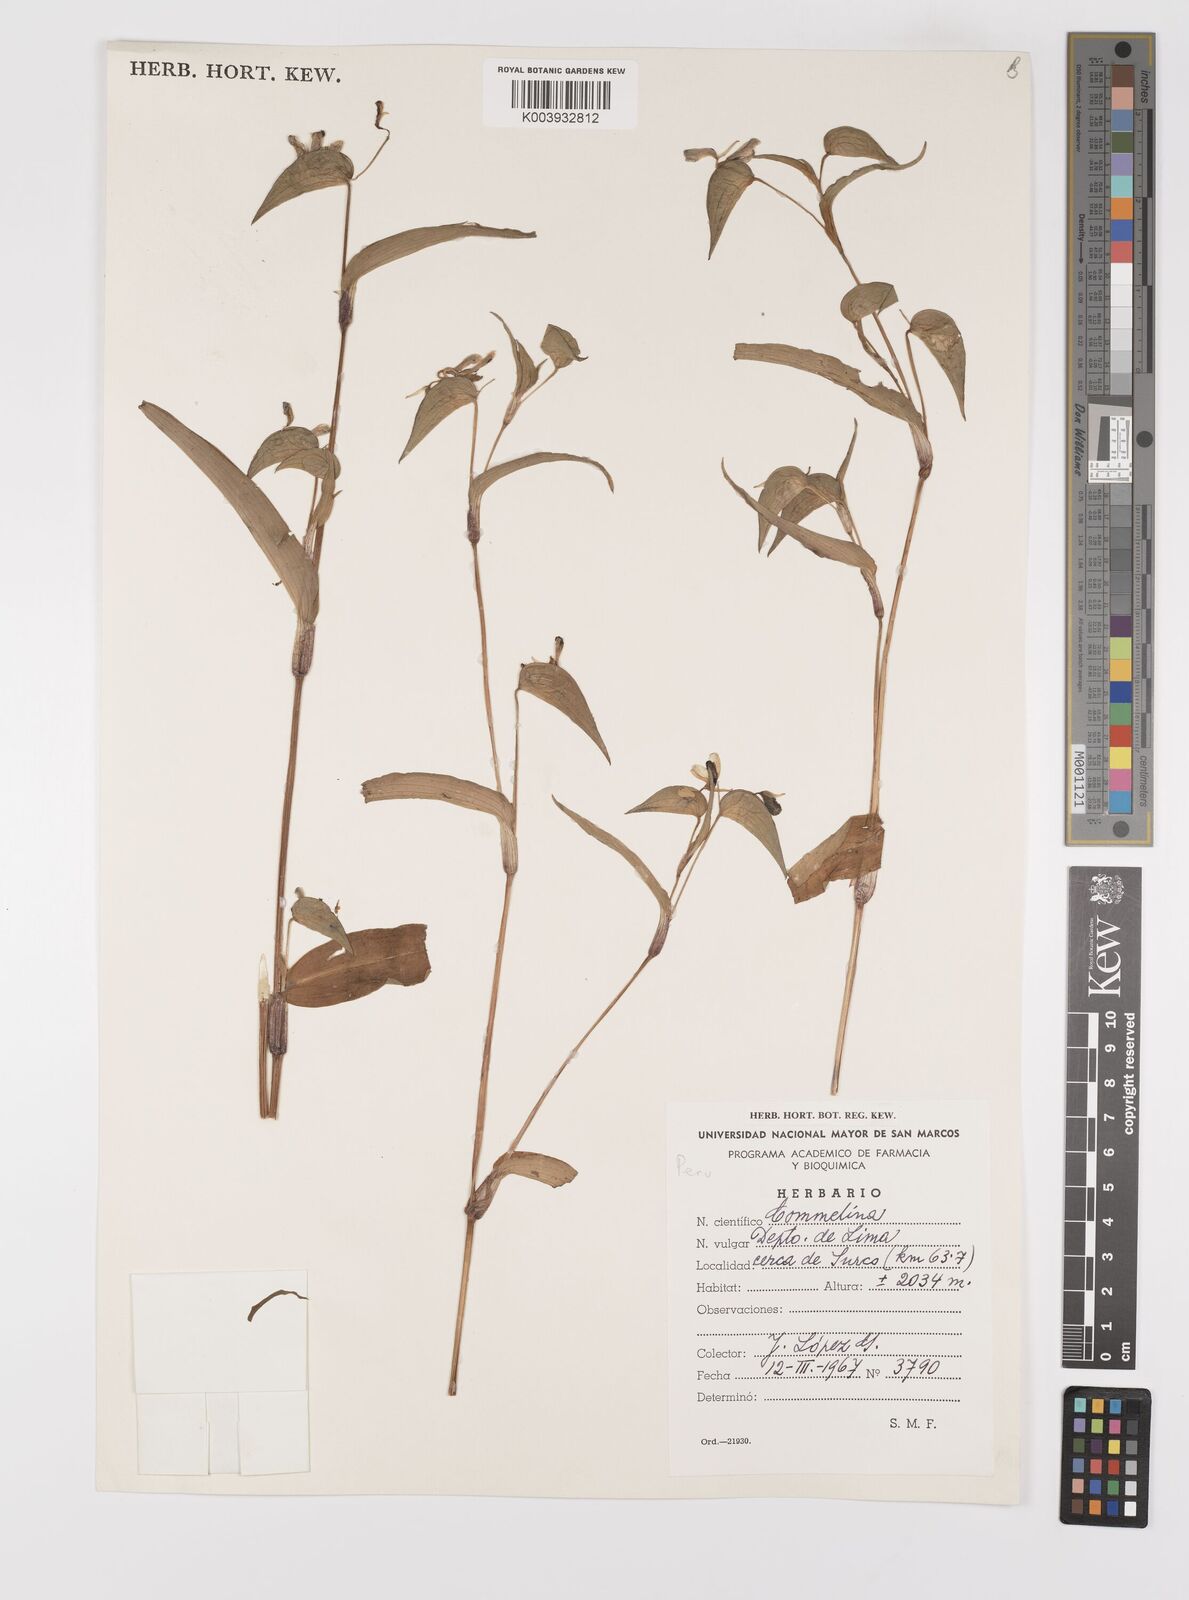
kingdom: Plantae
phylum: Tracheophyta
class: Liliopsida
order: Commelinales
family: Commelinaceae
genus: Commelina
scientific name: Commelina
